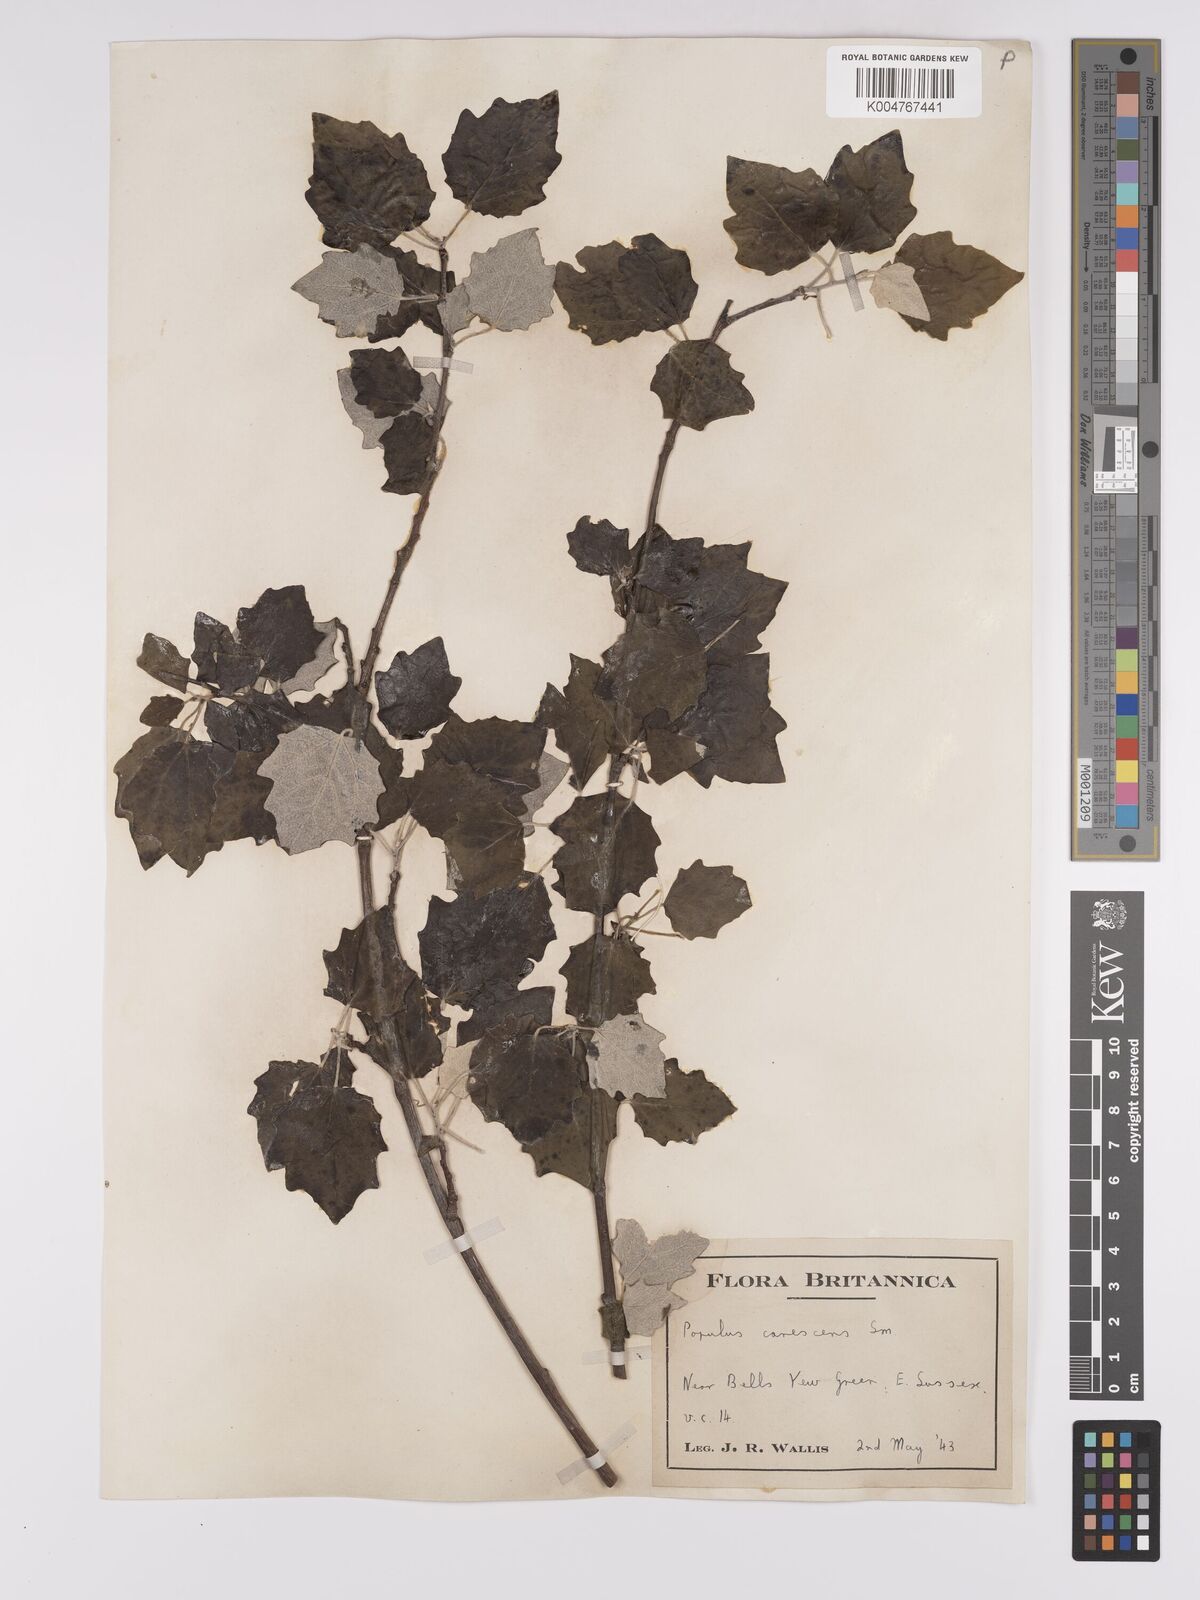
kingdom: Plantae
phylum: Tracheophyta
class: Magnoliopsida
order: Malpighiales
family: Salicaceae
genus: Populus
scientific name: Populus canescens
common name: Gray poplar
